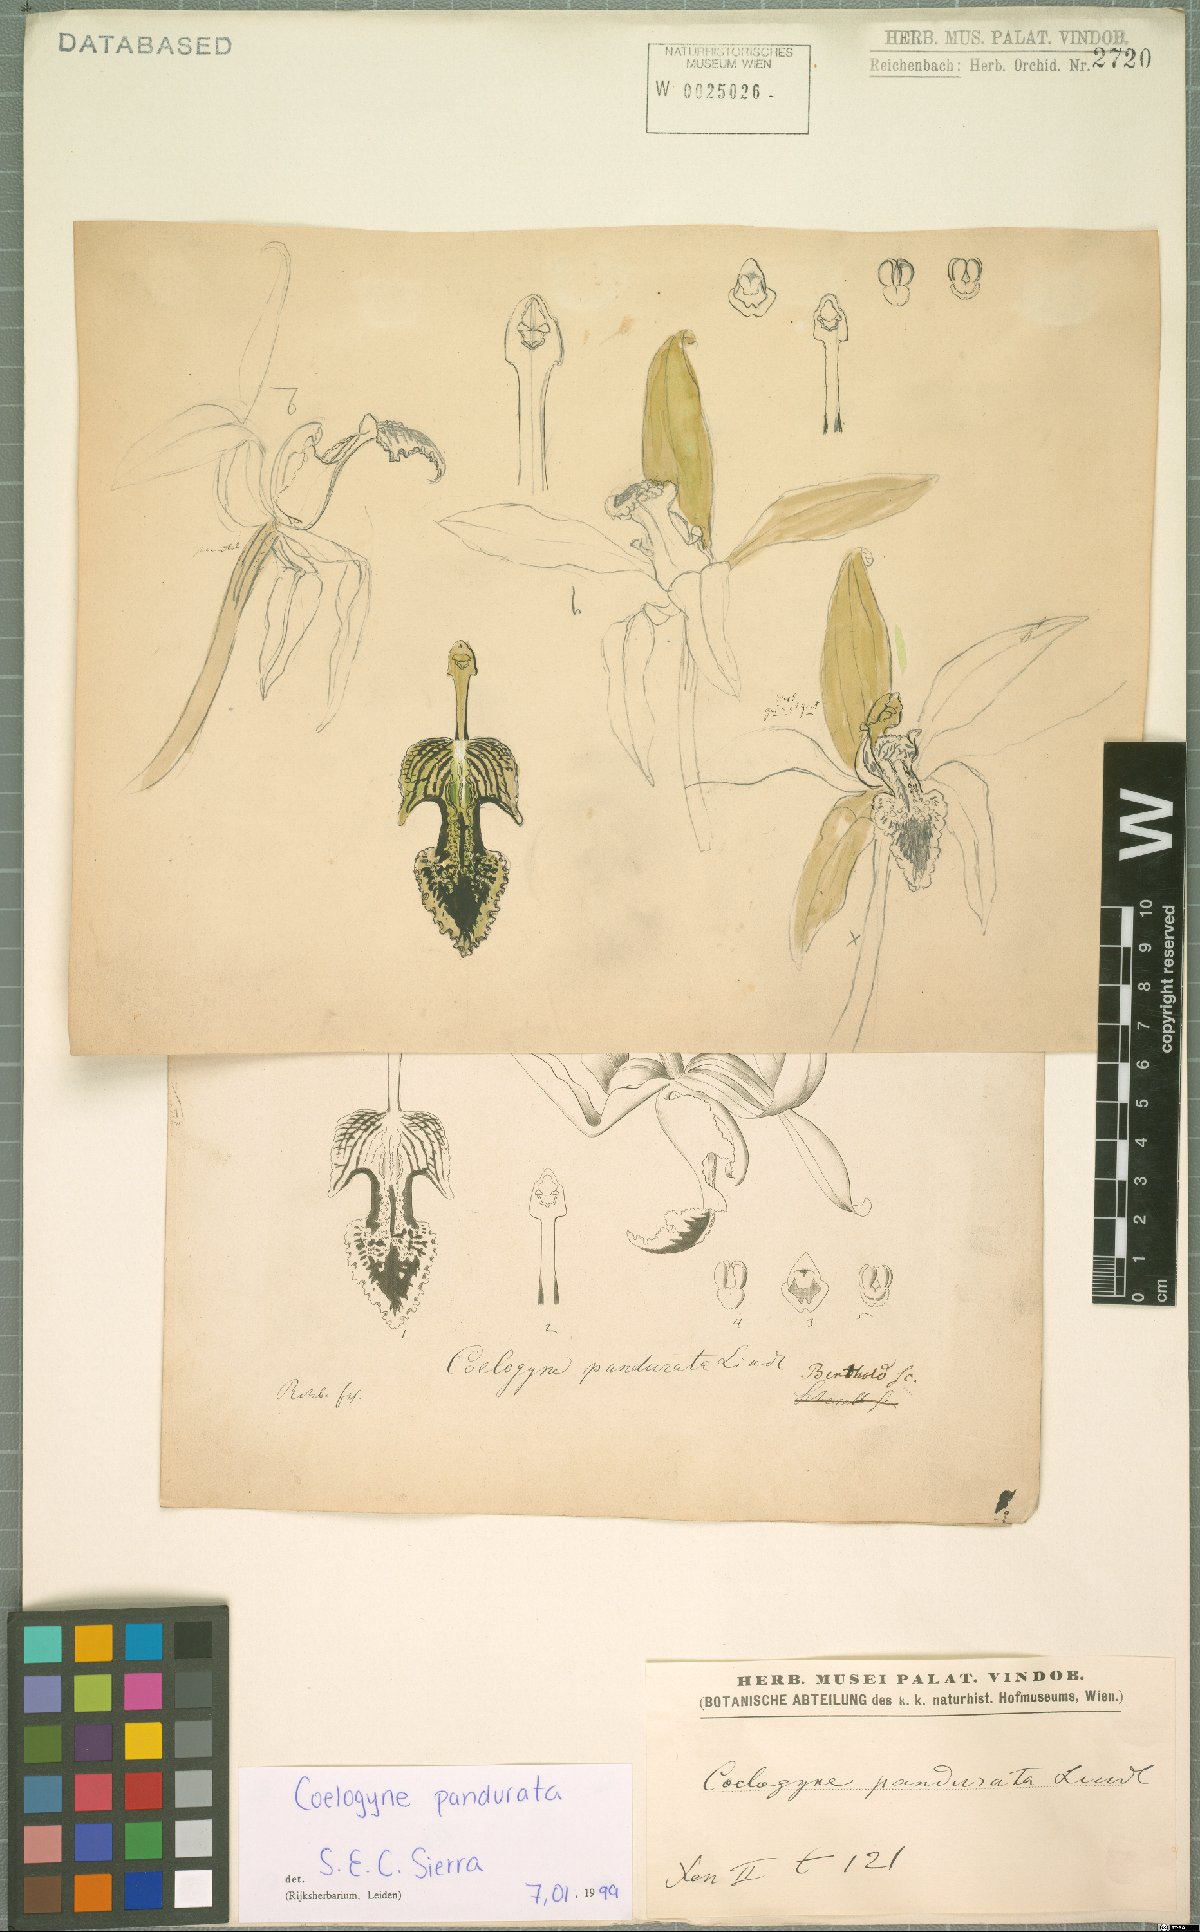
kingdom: Plantae
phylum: Tracheophyta
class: Liliopsida
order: Asparagales
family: Orchidaceae
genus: Coelogyne
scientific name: Coelogyne pandurata
